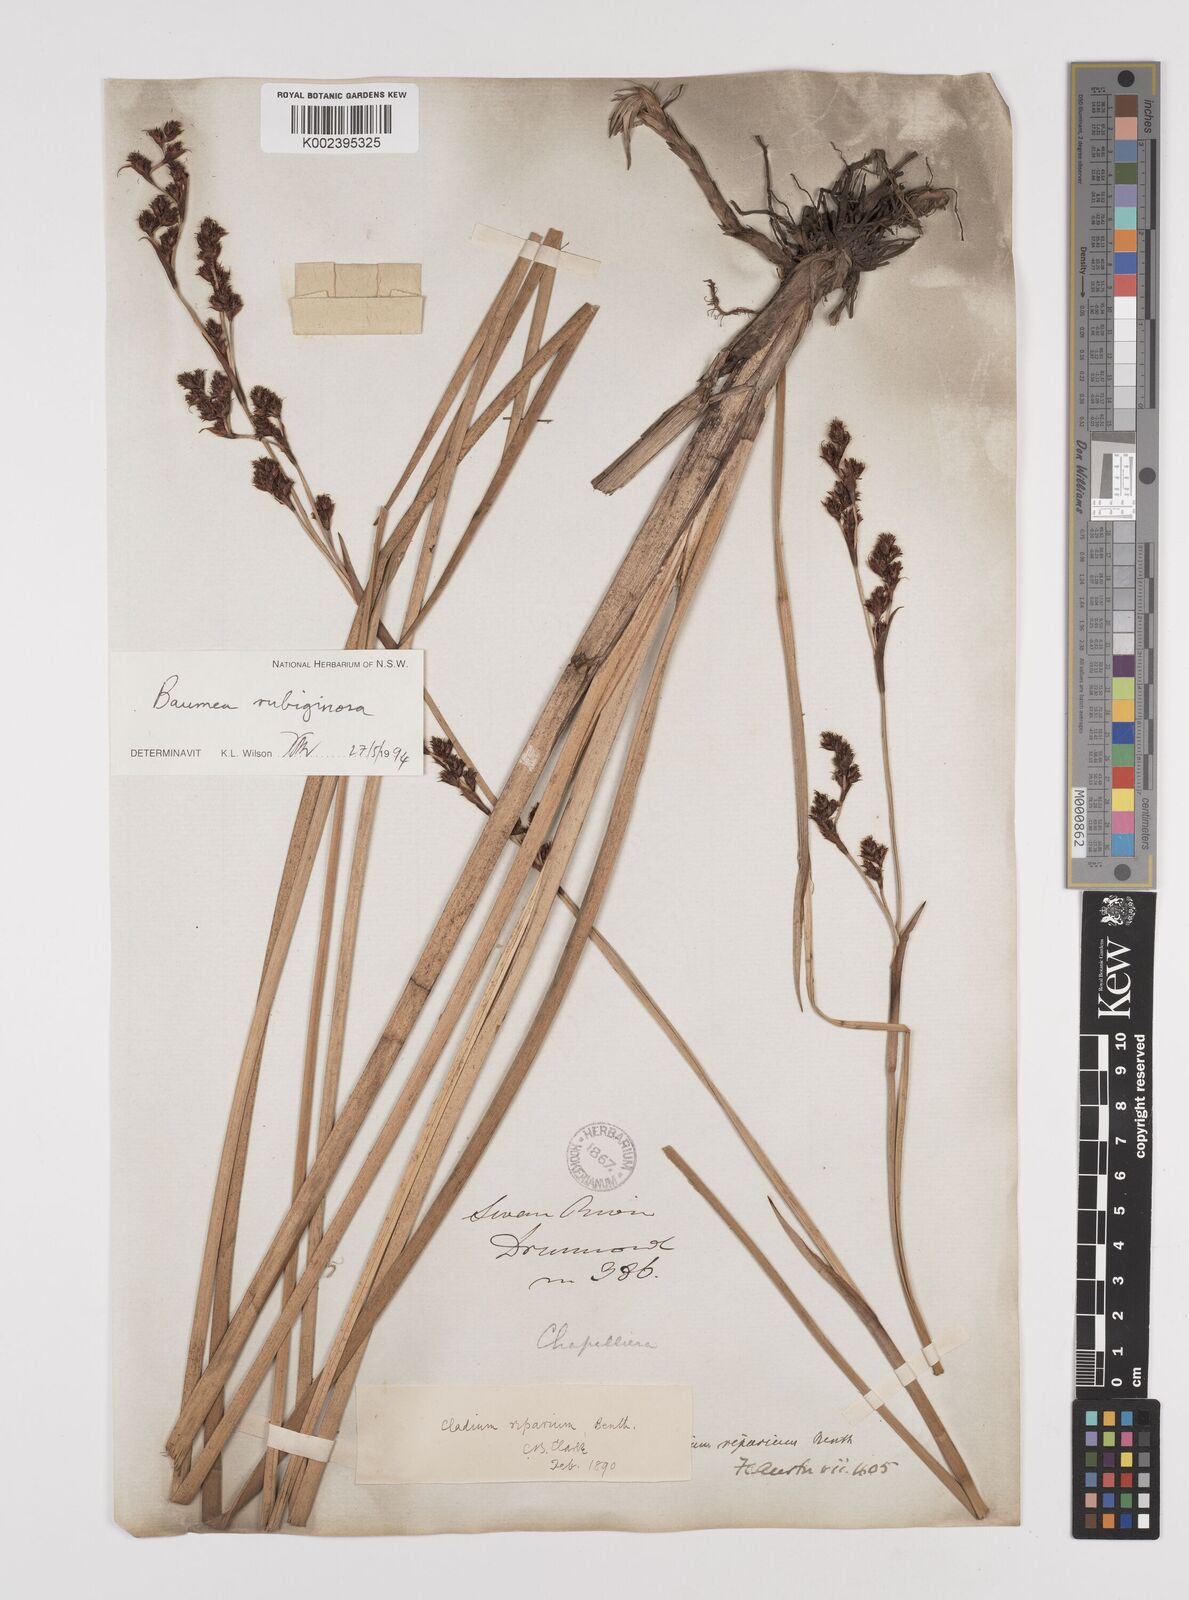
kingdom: Plantae
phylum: Tracheophyta
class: Liliopsida
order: Poales
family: Cyperaceae
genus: Machaerina
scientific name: Machaerina rubiginosa
